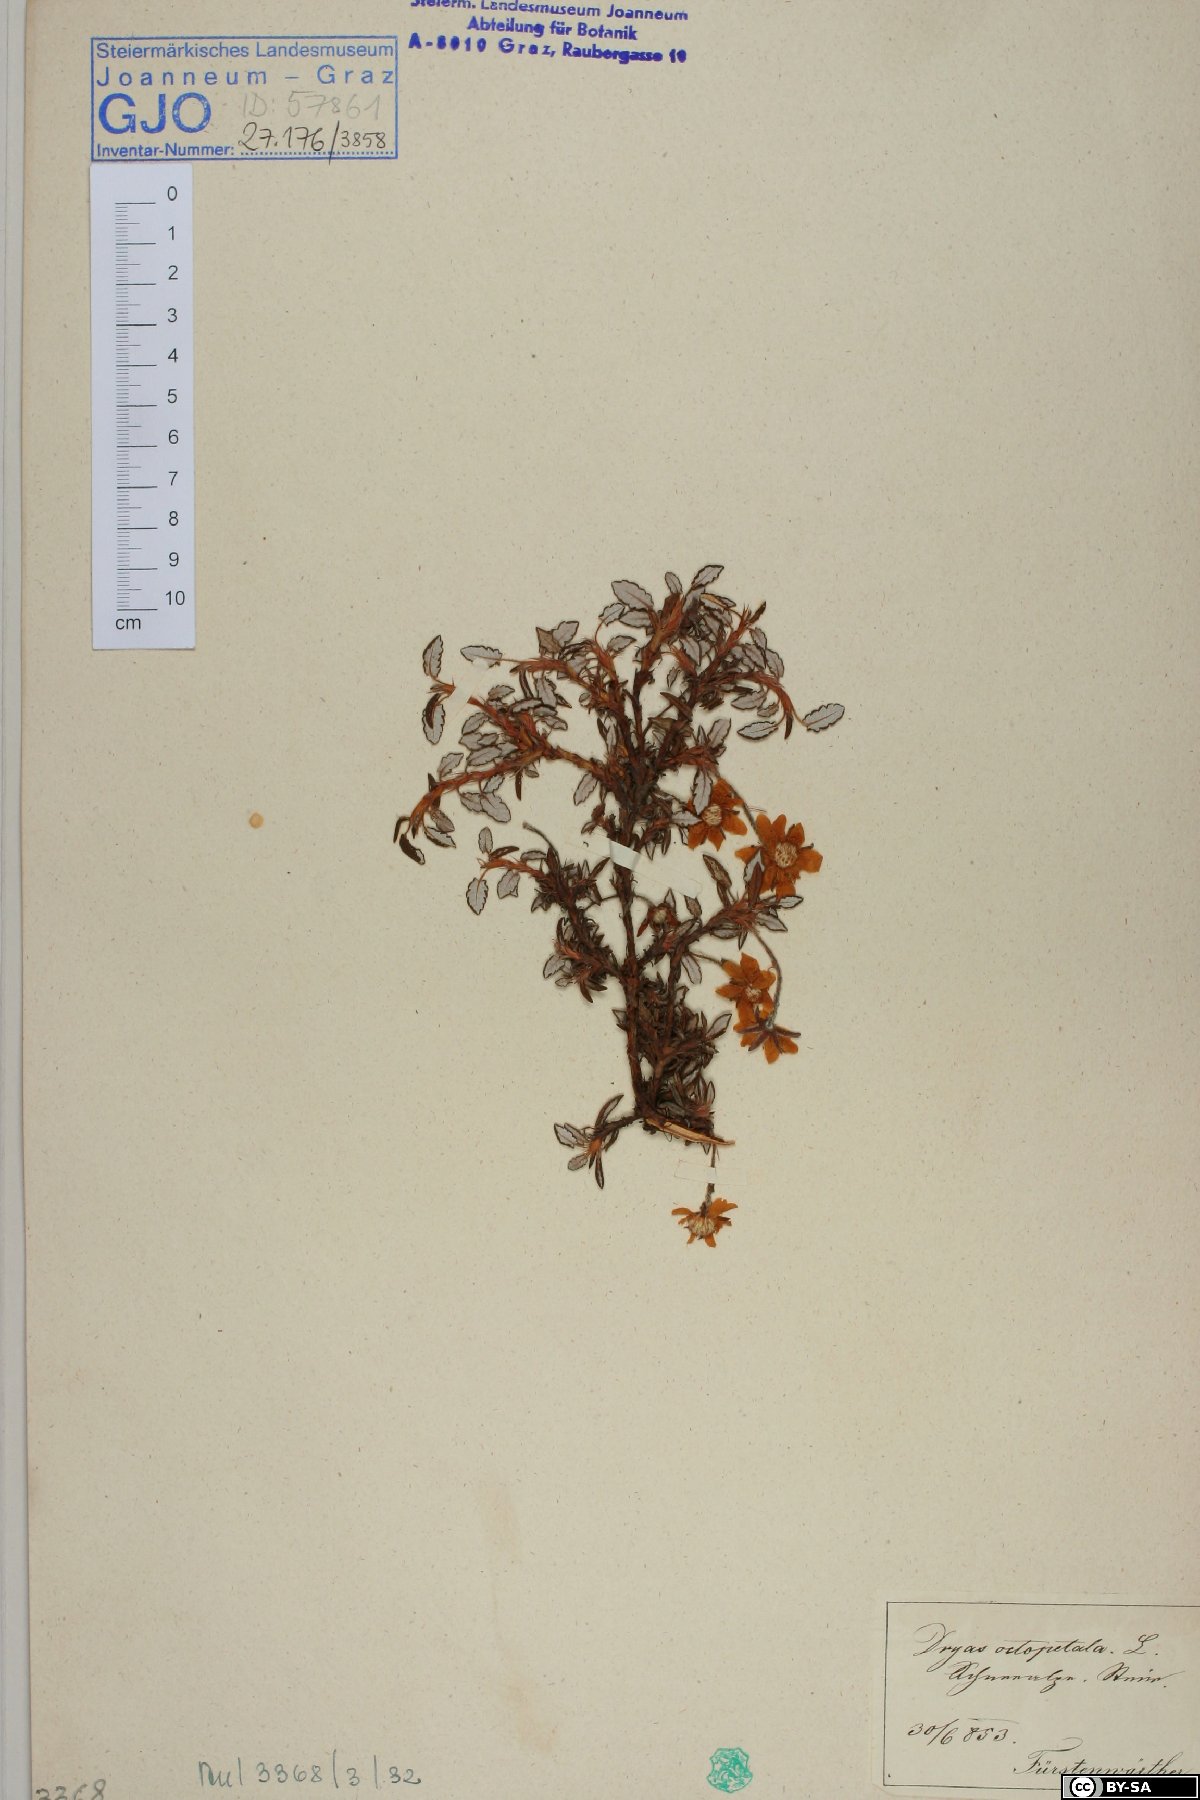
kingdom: Plantae
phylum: Tracheophyta
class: Magnoliopsida
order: Rosales
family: Rosaceae
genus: Dryas
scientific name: Dryas octopetala
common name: Eight-petal mountain-avens
